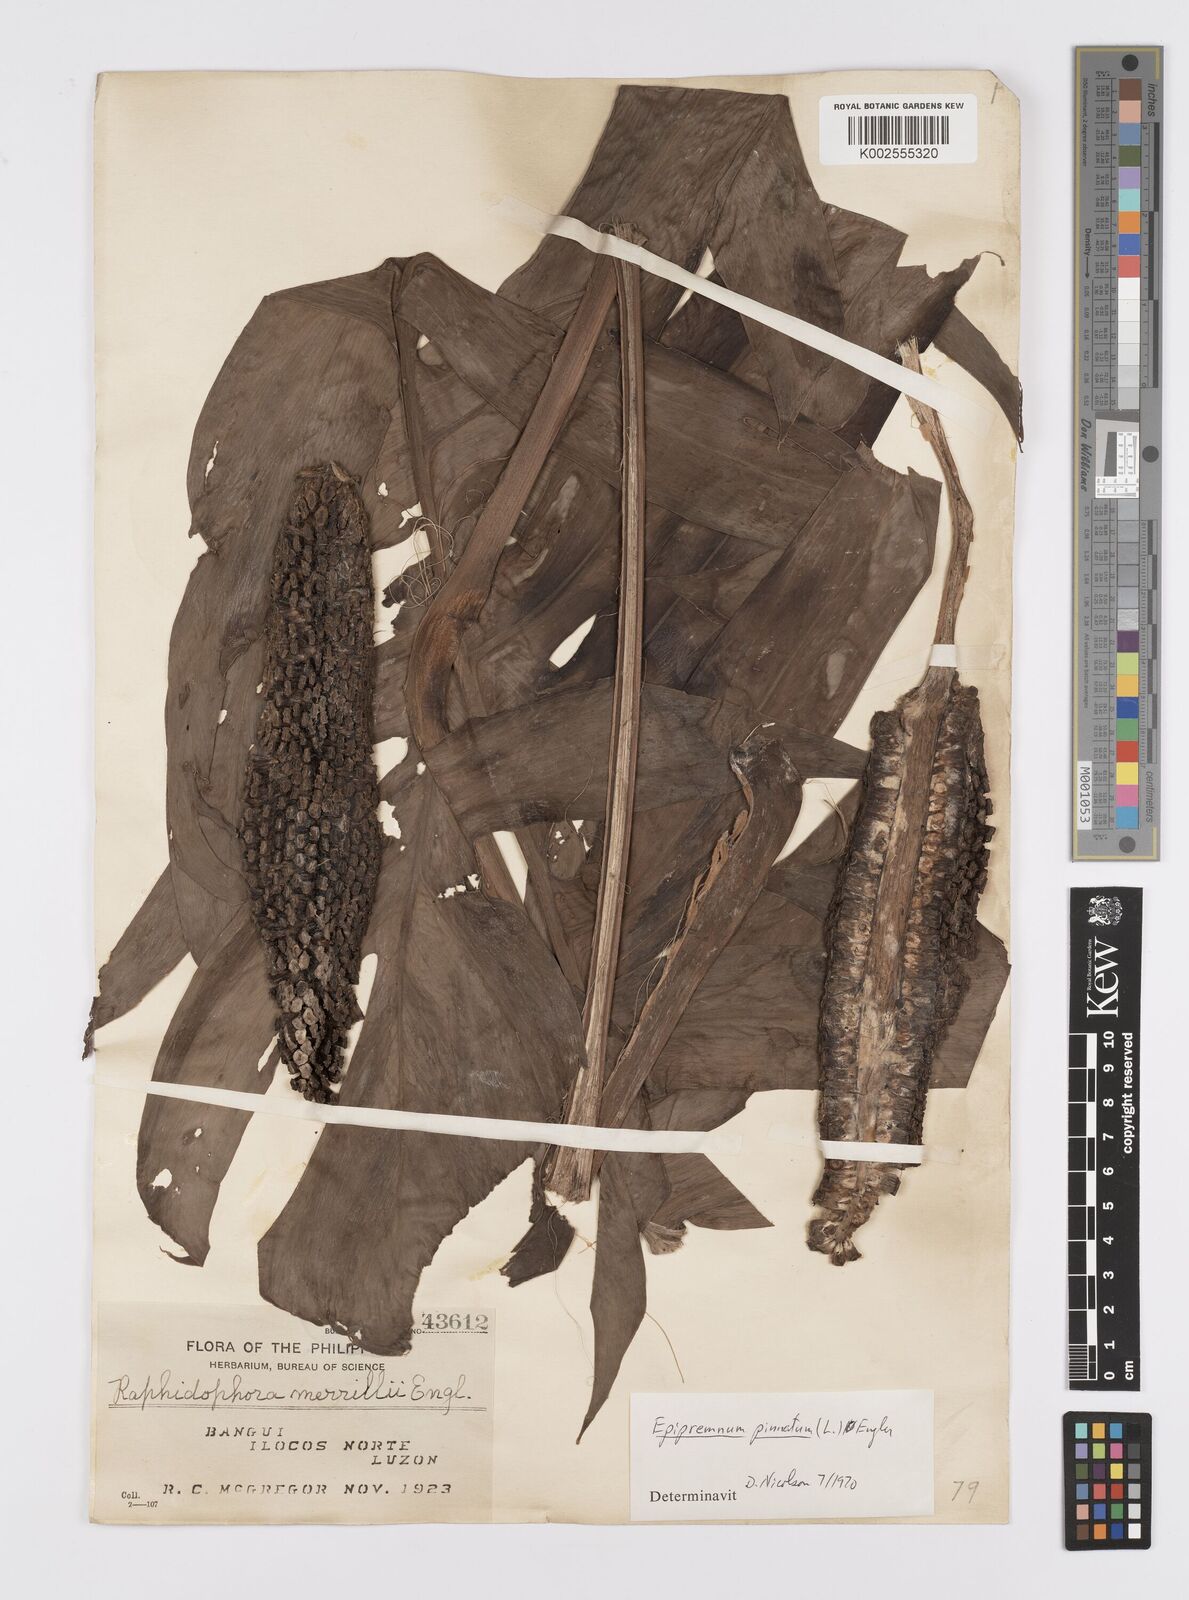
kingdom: Plantae
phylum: Tracheophyta
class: Liliopsida
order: Alismatales
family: Araceae
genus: Epipremnum
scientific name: Epipremnum pinnatum
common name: Centipede tongavine
